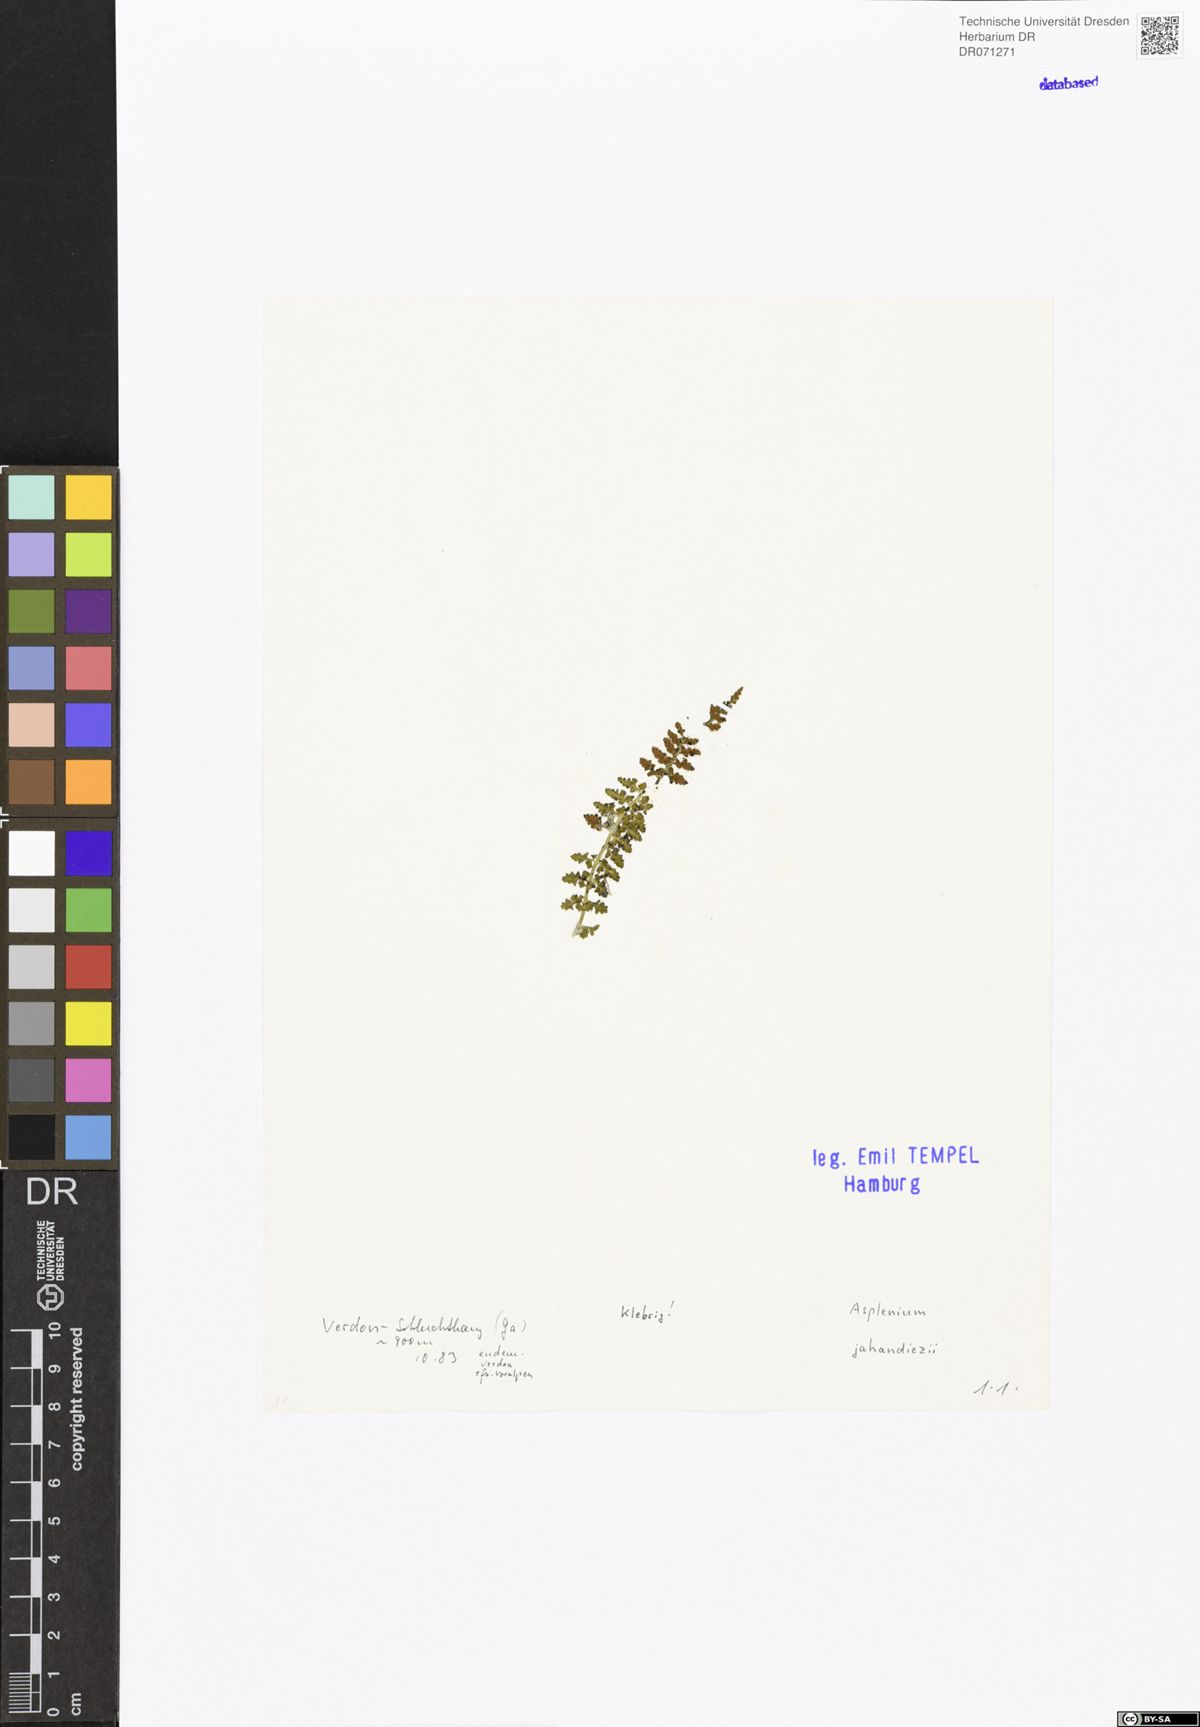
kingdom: Plantae
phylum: Tracheophyta
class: Polypodiopsida
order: Polypodiales
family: Aspleniaceae
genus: Asplenium
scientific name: Asplenium jahandiezii
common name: Verdon spleenwort
